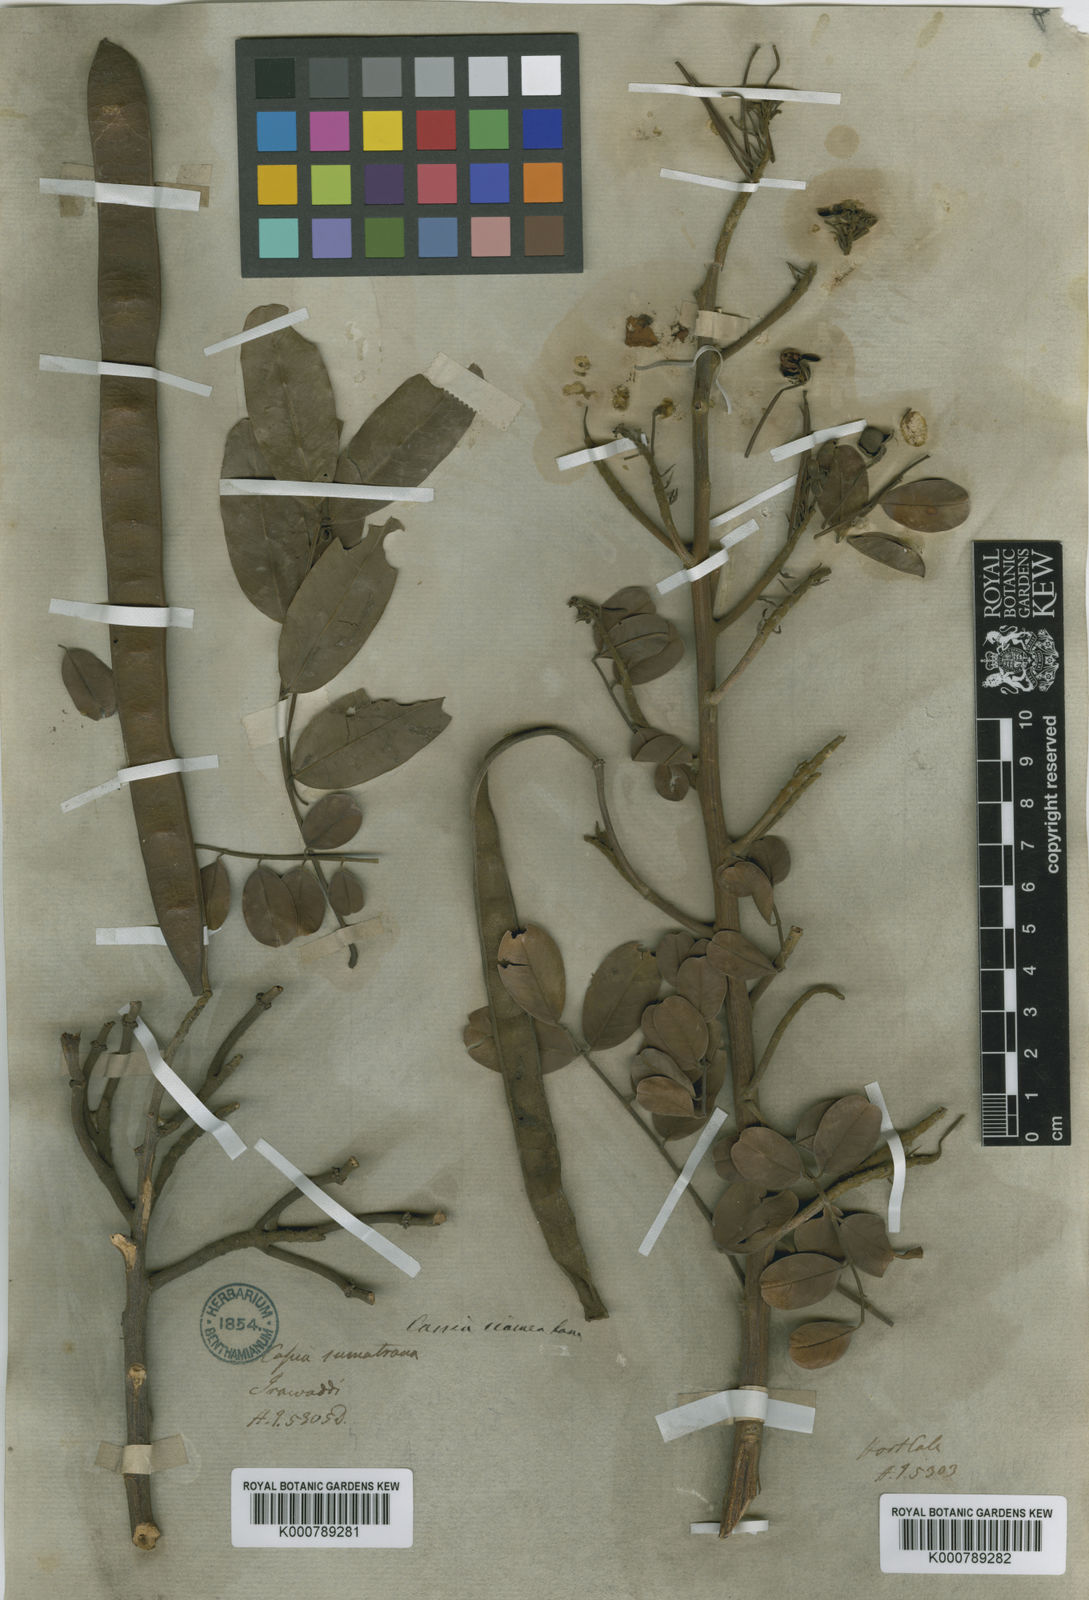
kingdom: Plantae
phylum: Tracheophyta
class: Magnoliopsida
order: Fabales
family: Fabaceae
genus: Senna
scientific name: Senna siamea
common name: Siamese cassia
